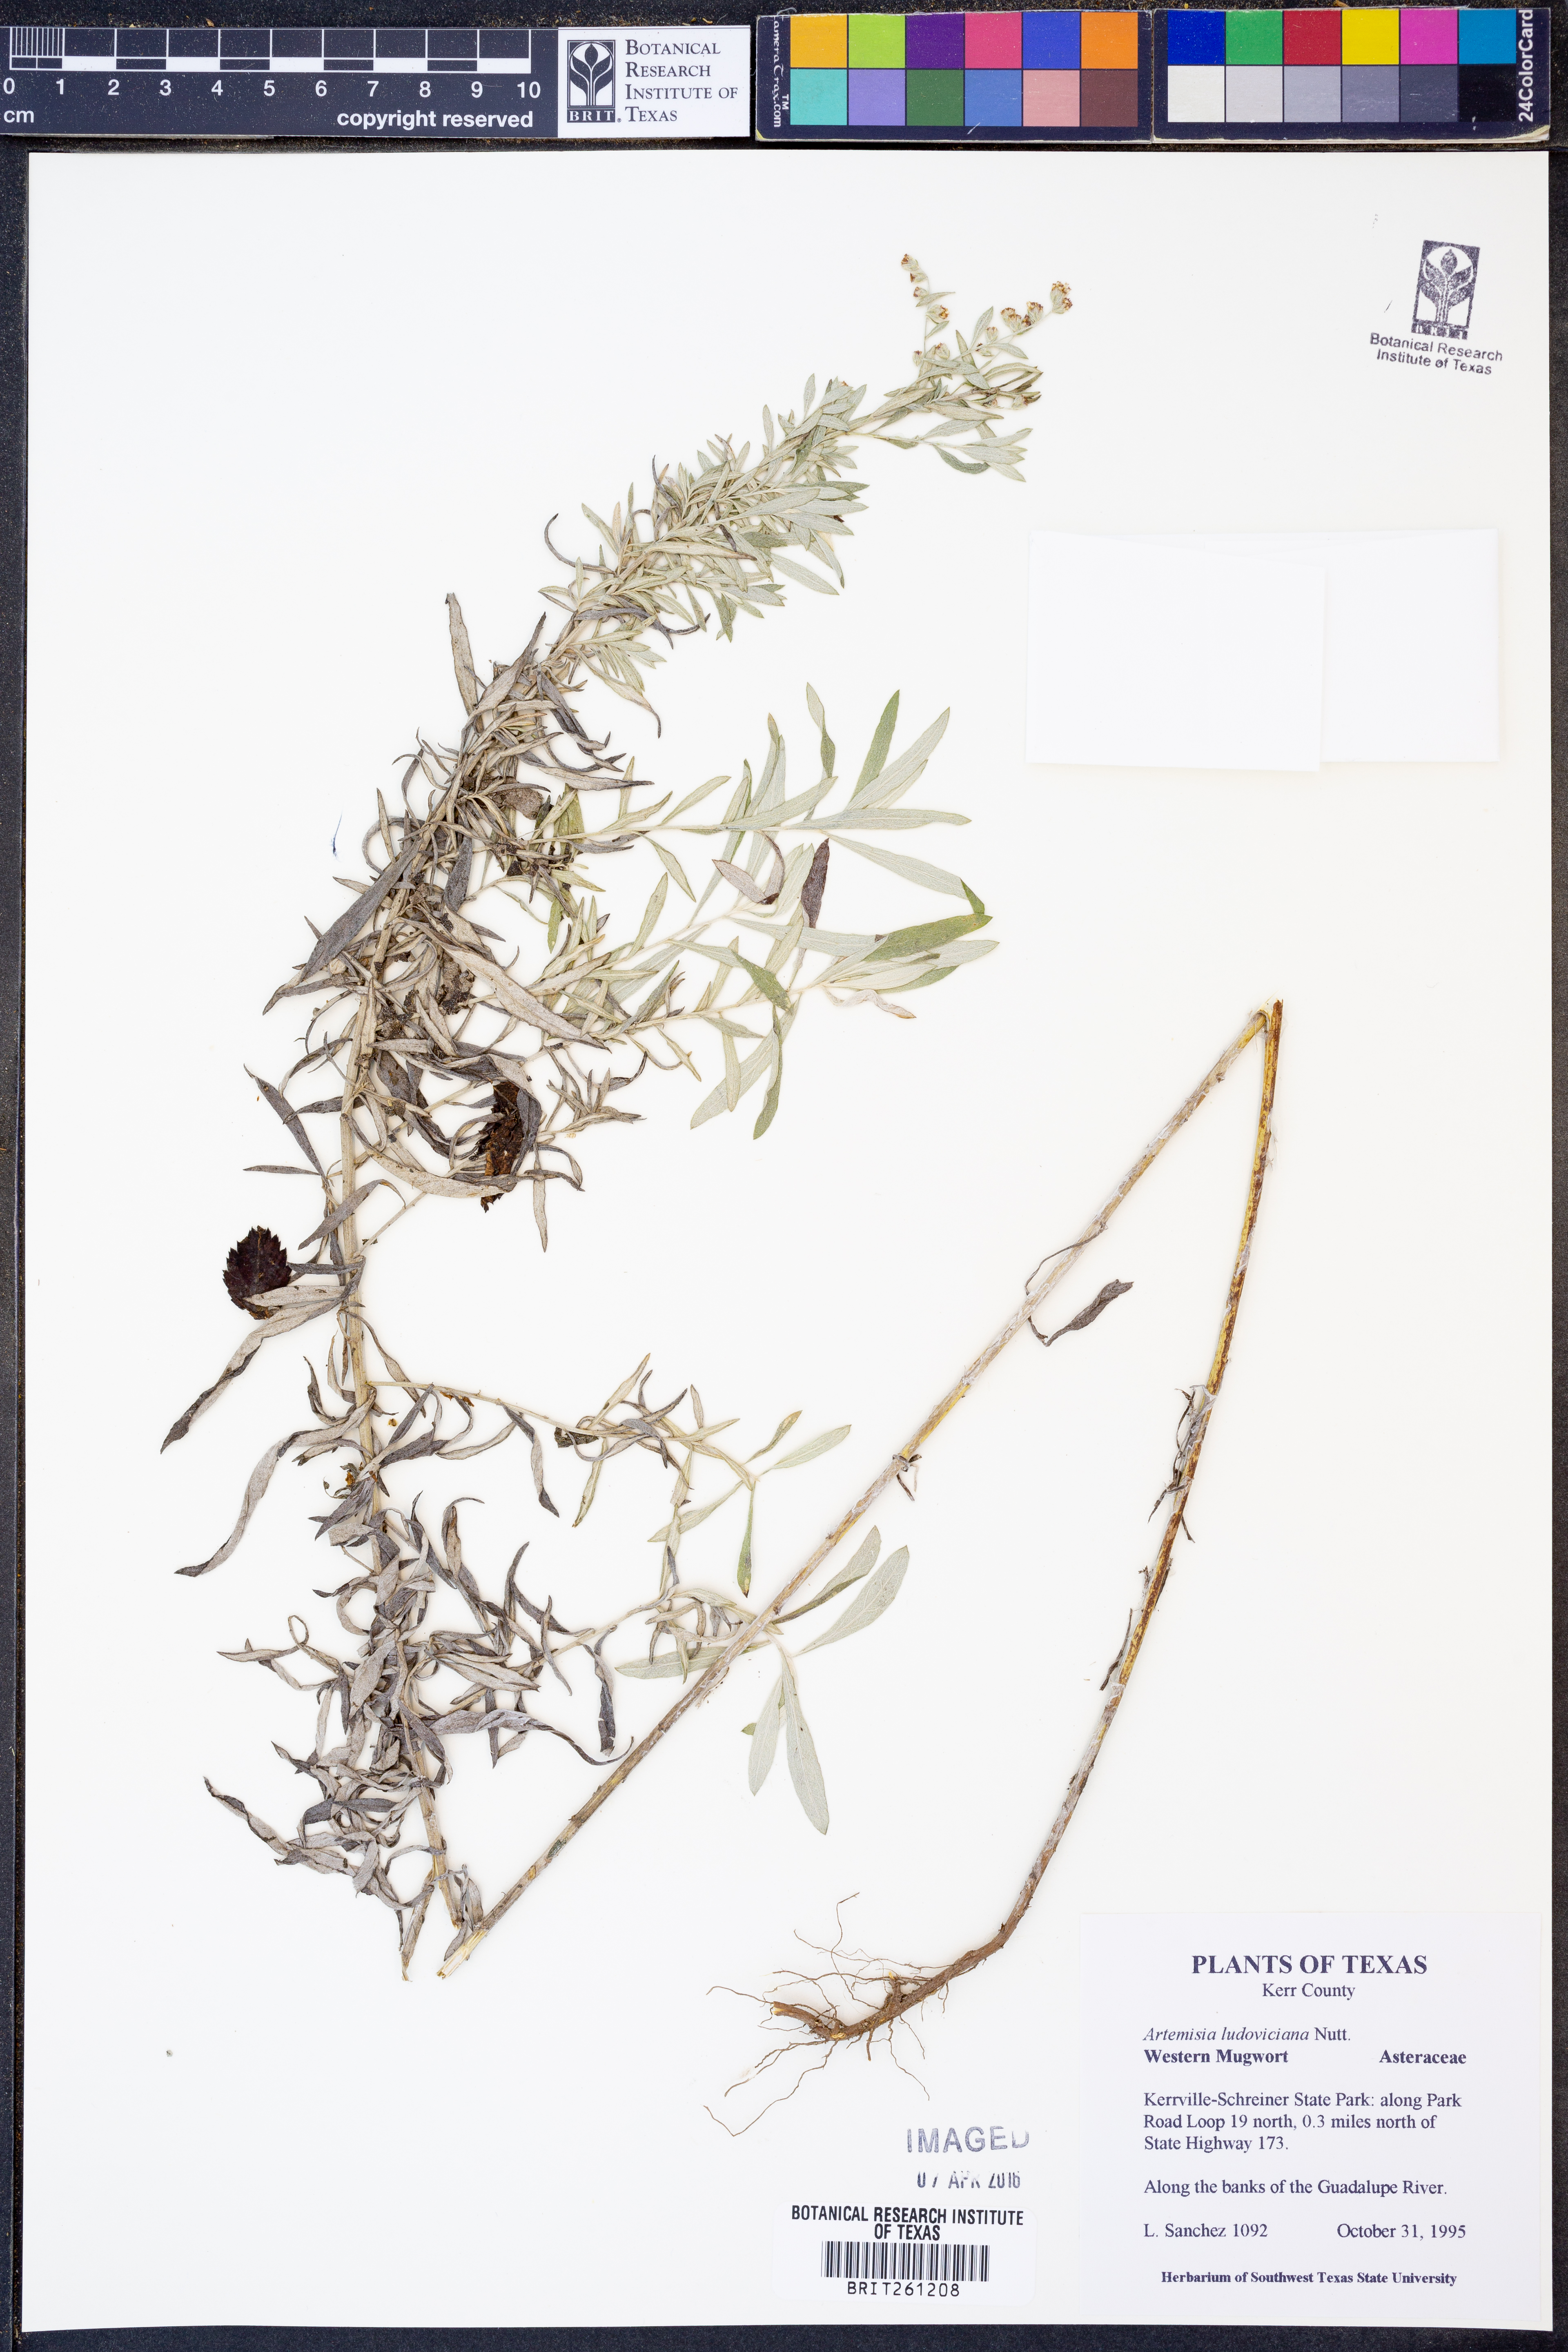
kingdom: Plantae
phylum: Tracheophyta
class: Magnoliopsida
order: Asterales
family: Asteraceae
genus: Artemisia
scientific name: Artemisia ludoviciana
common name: Western mugwort
